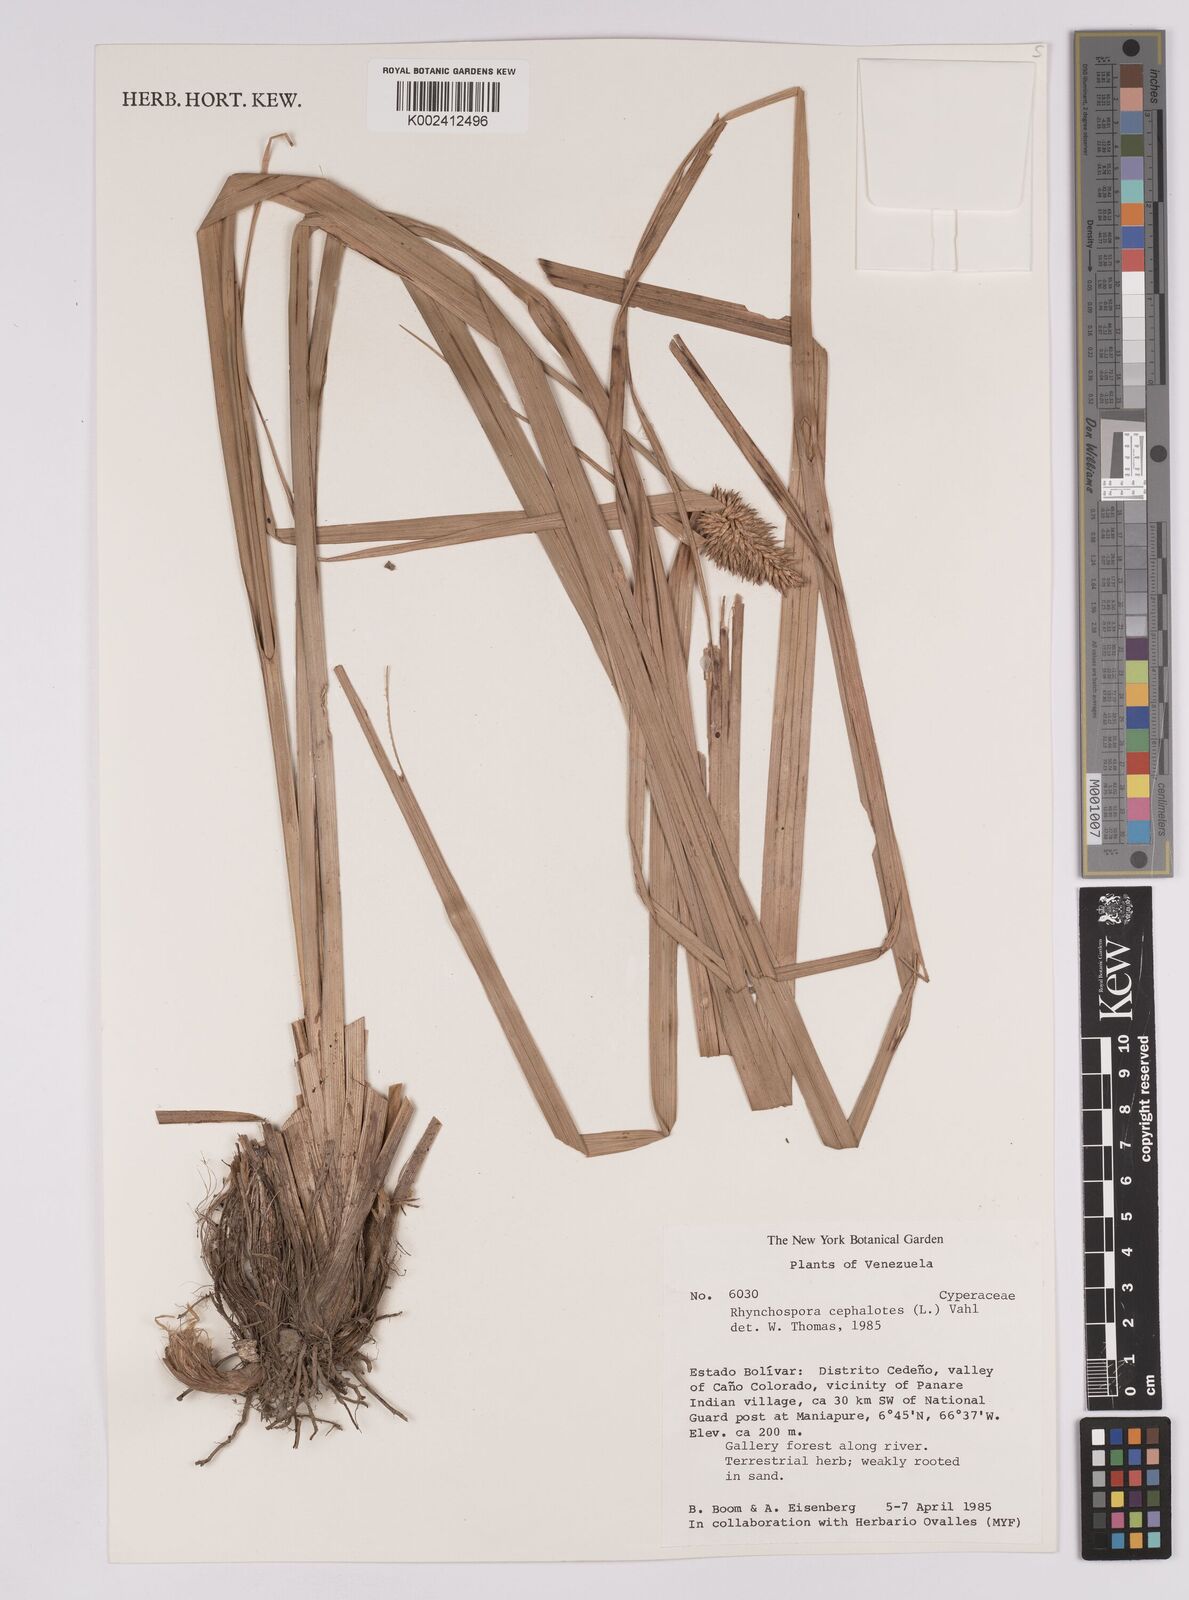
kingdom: Plantae
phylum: Tracheophyta
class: Liliopsida
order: Poales
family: Cyperaceae
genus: Rhynchospora
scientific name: Rhynchospora cephalotes
